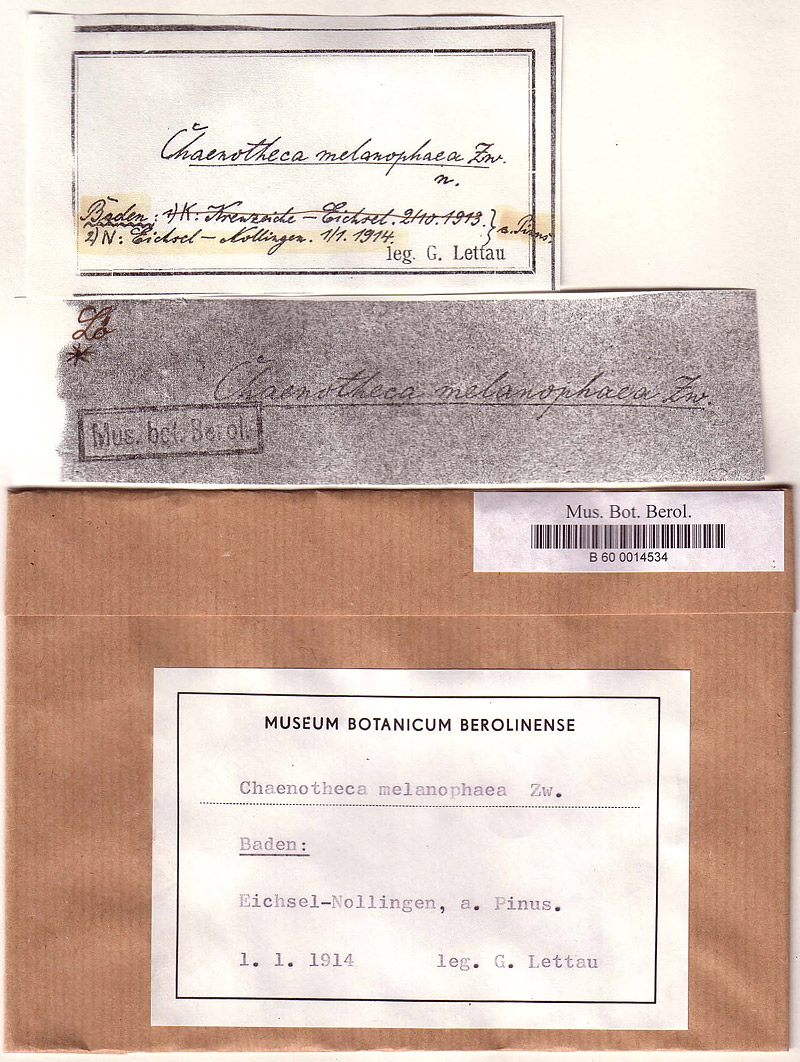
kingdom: Fungi
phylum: Ascomycota
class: Coniocybomycetes
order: Coniocybales
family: Coniocybaceae
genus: Chaenotheca
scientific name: Chaenotheca ferruginea
